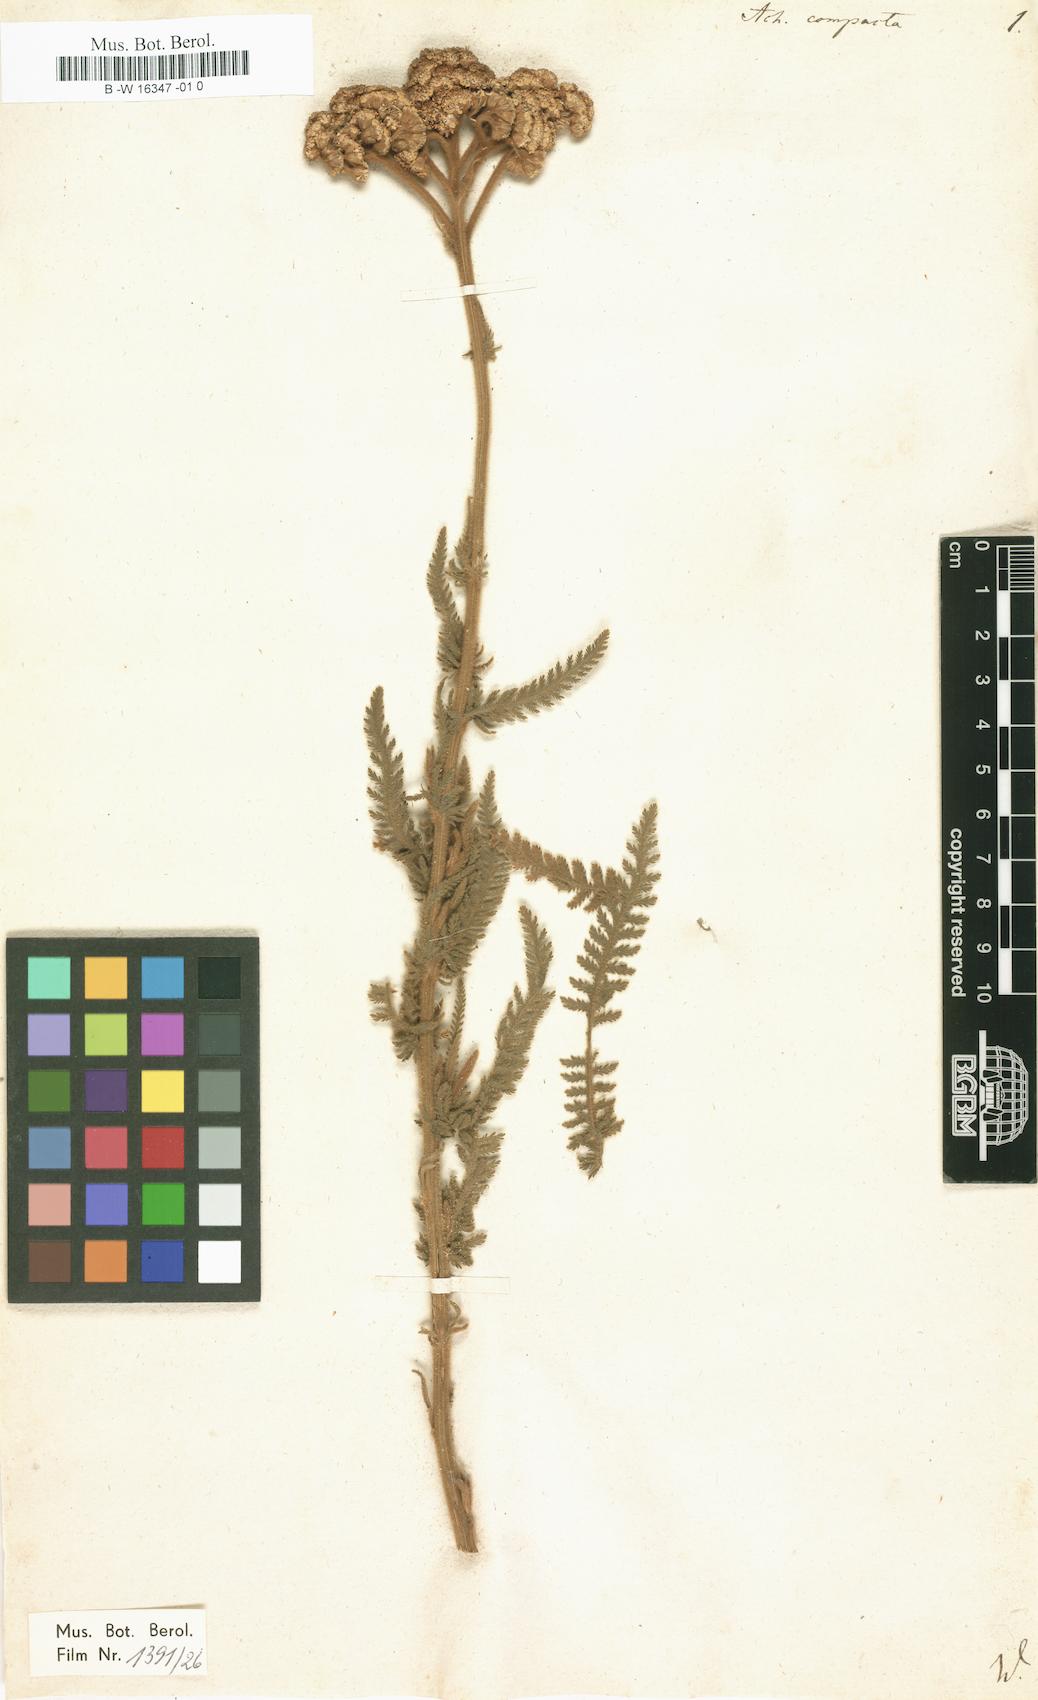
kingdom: Plantae
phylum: Tracheophyta
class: Magnoliopsida
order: Asterales
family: Asteraceae
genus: Achillea
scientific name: Achillea clypeolata
